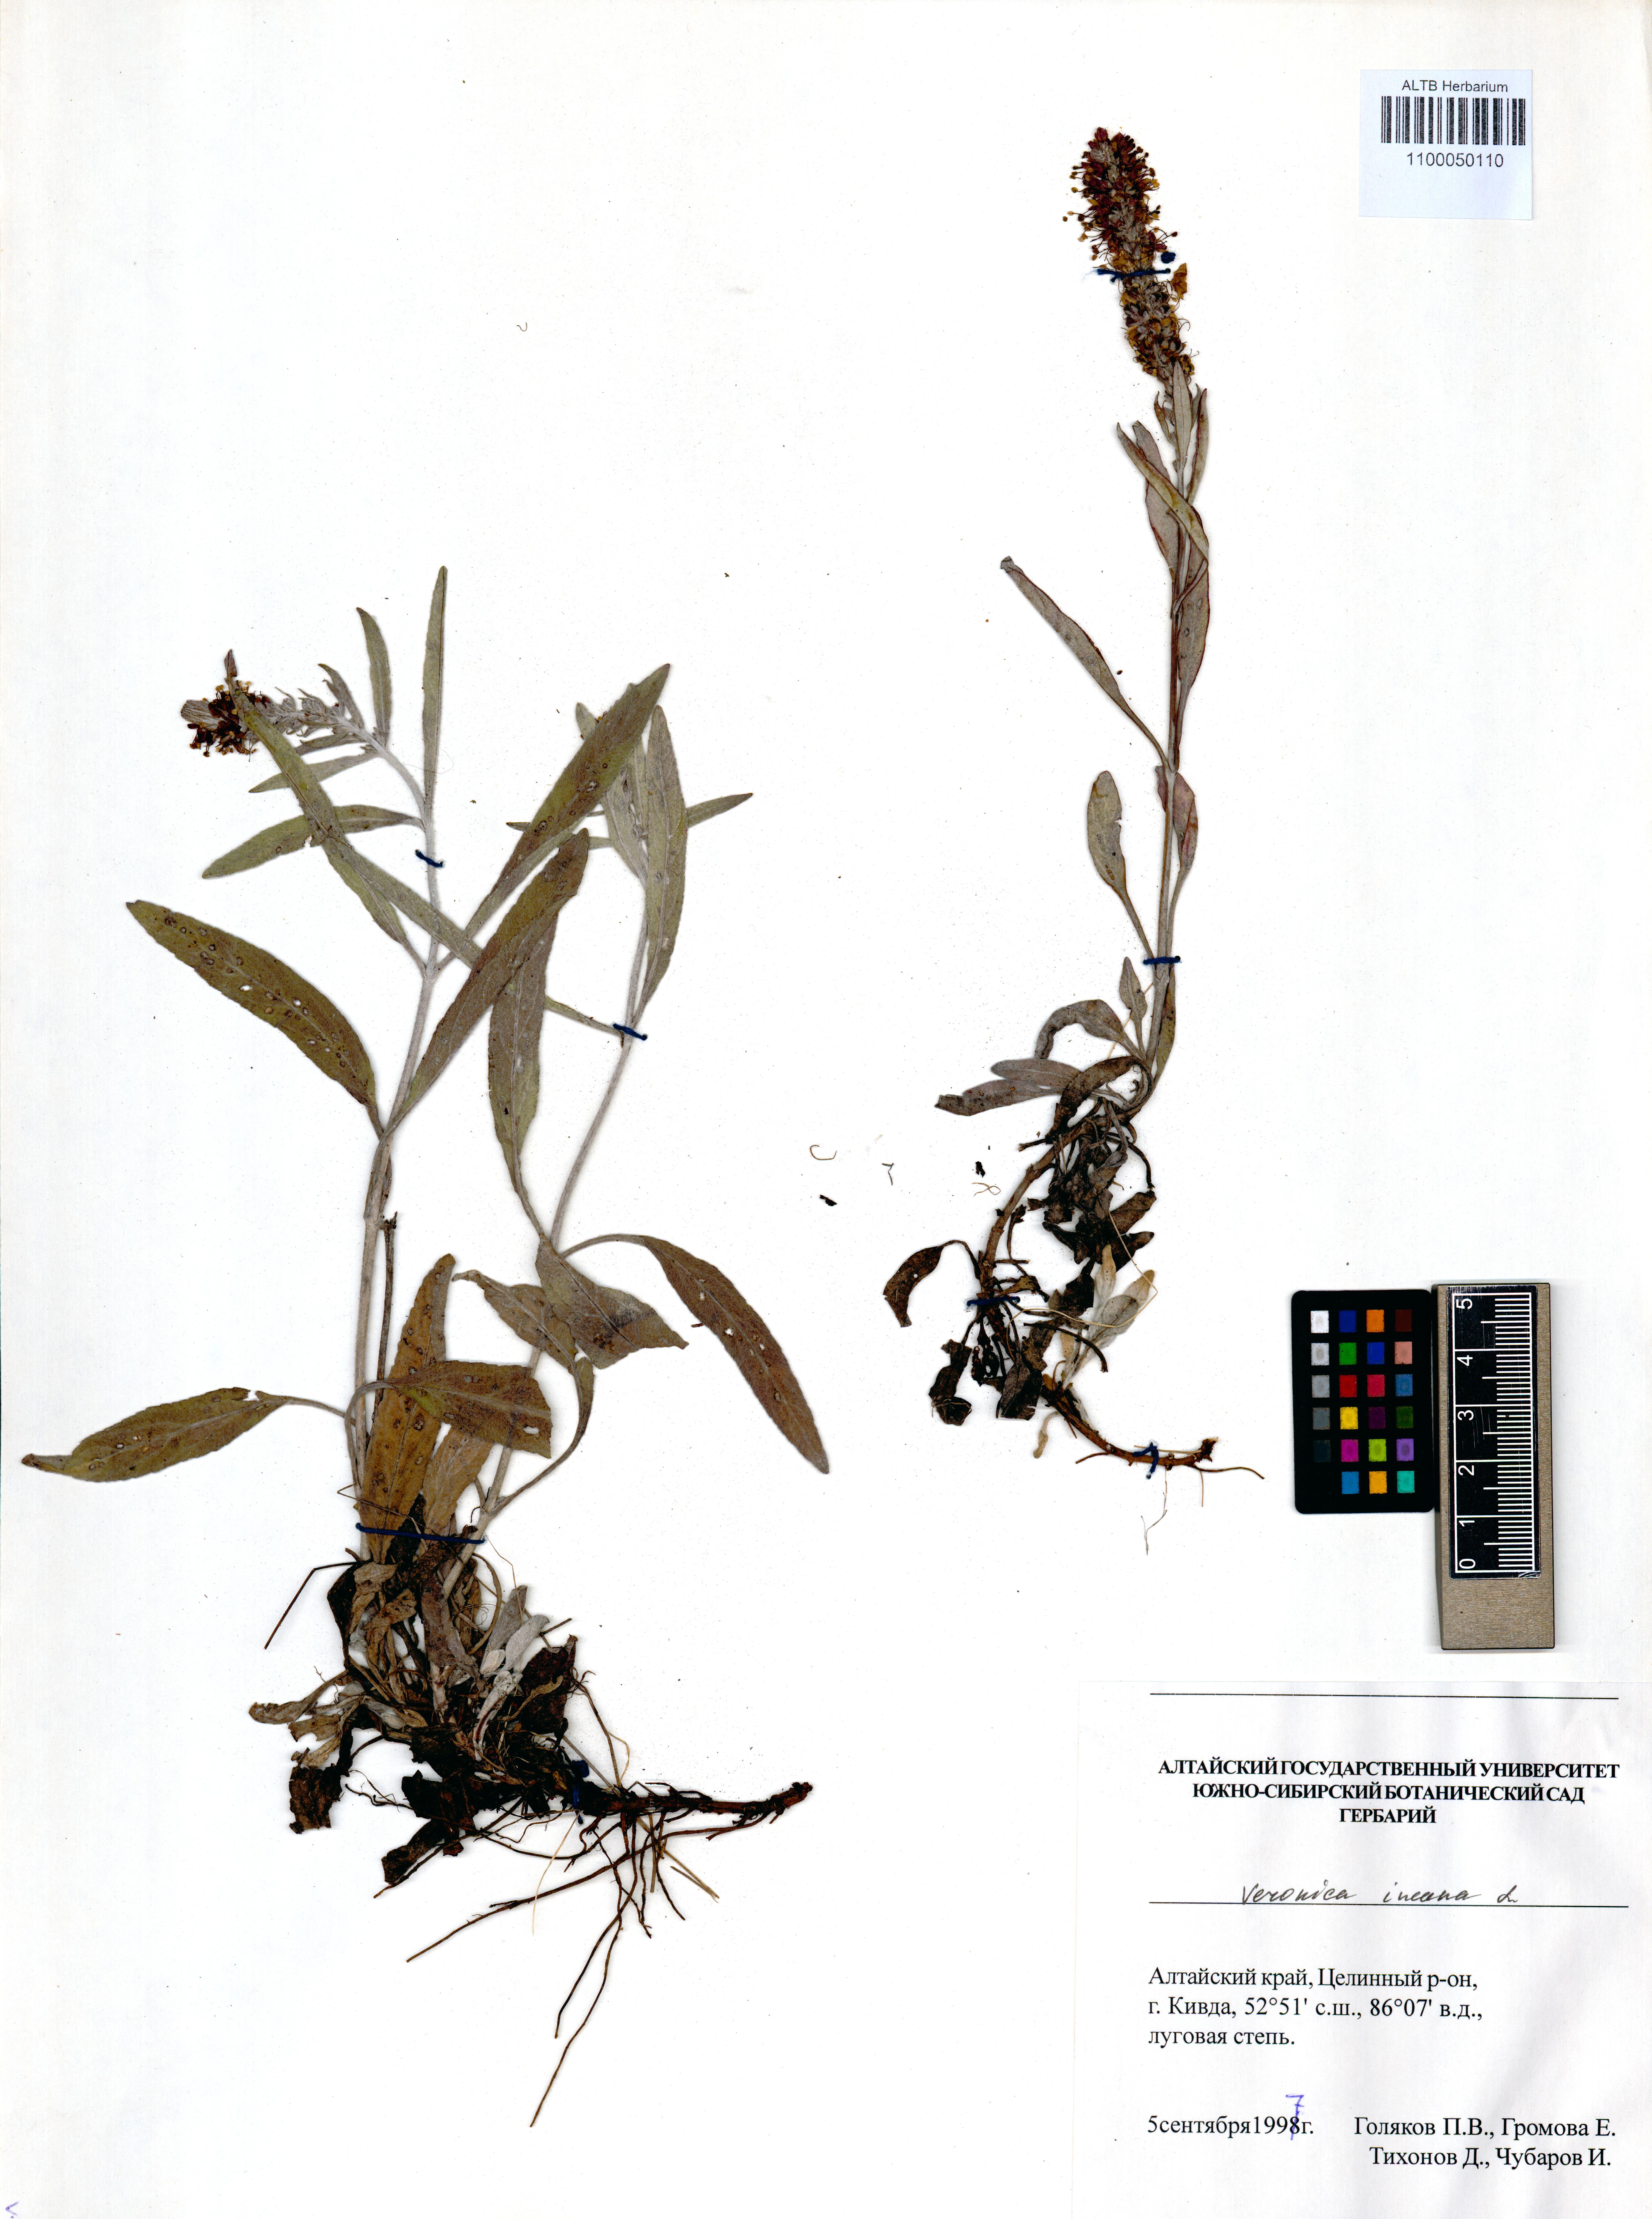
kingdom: Plantae
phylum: Tracheophyta
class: Magnoliopsida
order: Lamiales
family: Plantaginaceae
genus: Veronica
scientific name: Veronica incana
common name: Silver speedwell
